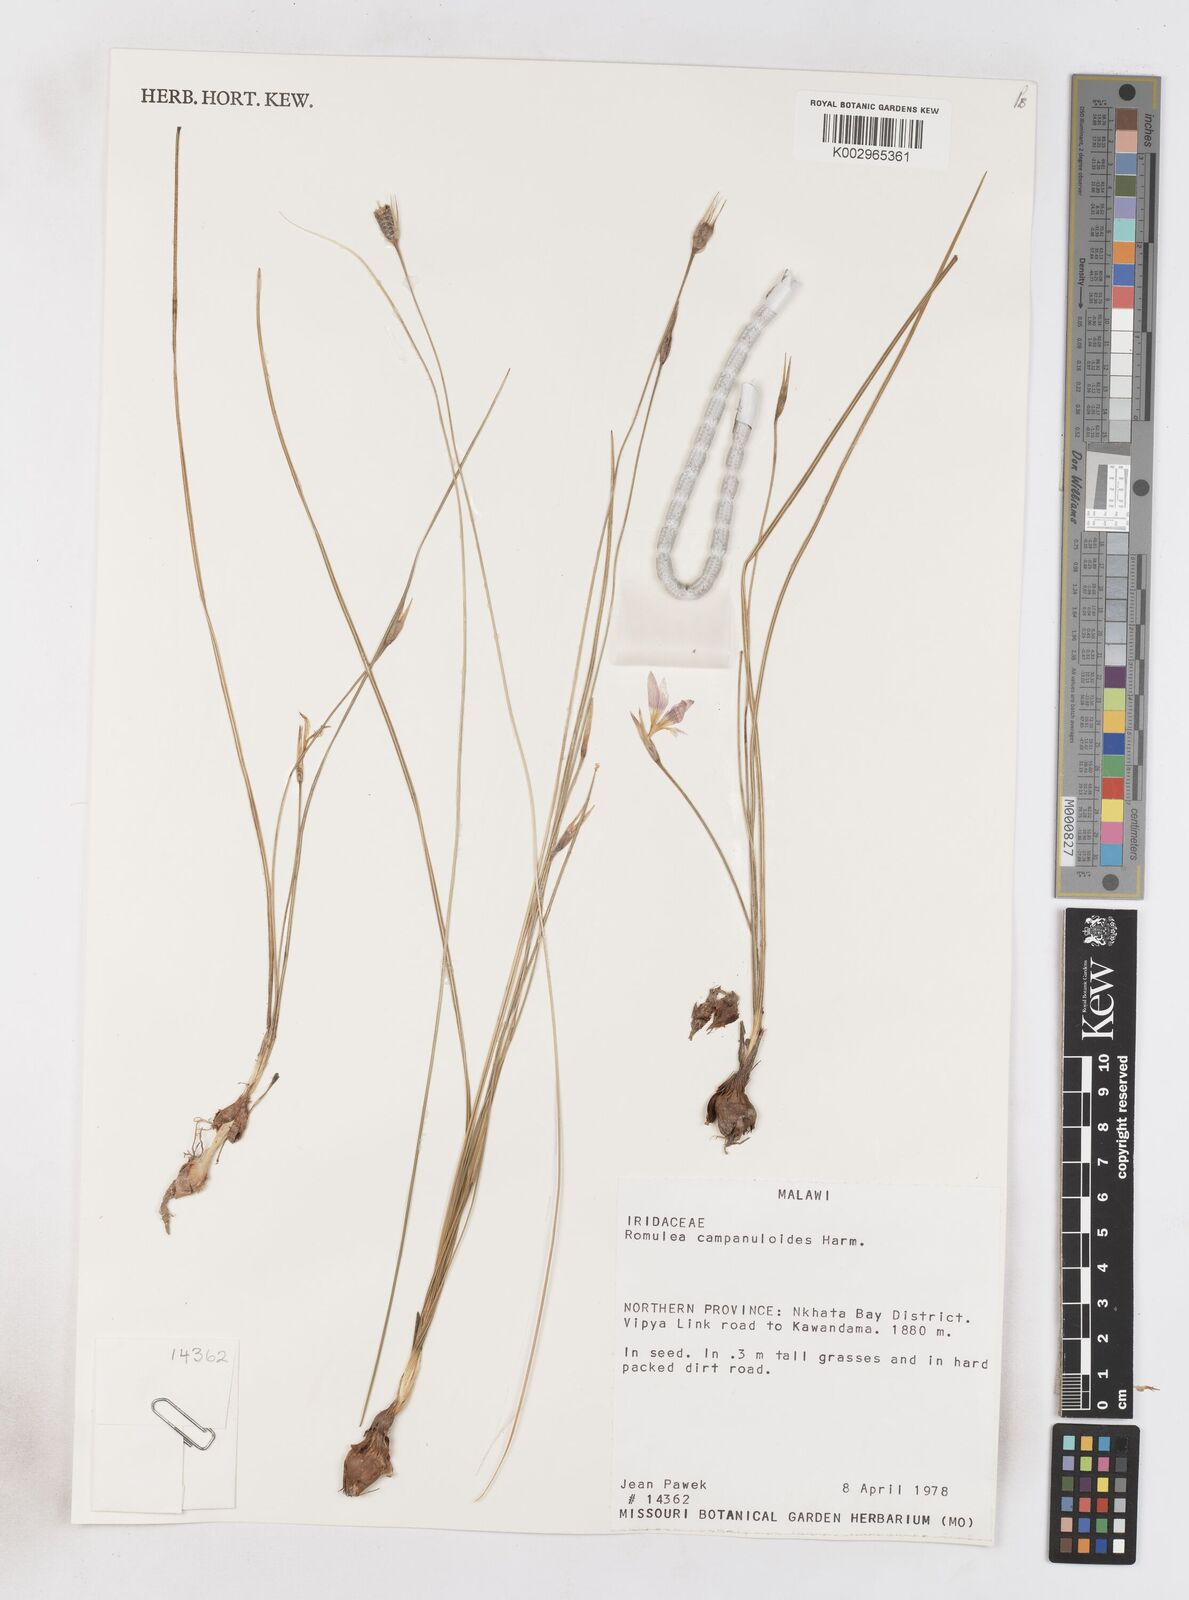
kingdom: Plantae
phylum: Tracheophyta
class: Liliopsida
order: Asparagales
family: Iridaceae
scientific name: Iridaceae
